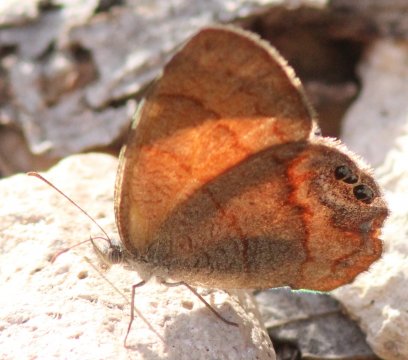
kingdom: Animalia
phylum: Arthropoda
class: Insecta
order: Lepidoptera
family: Nymphalidae
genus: Euptychia
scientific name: Euptychia pyracmon
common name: Nabokov's Satyr
